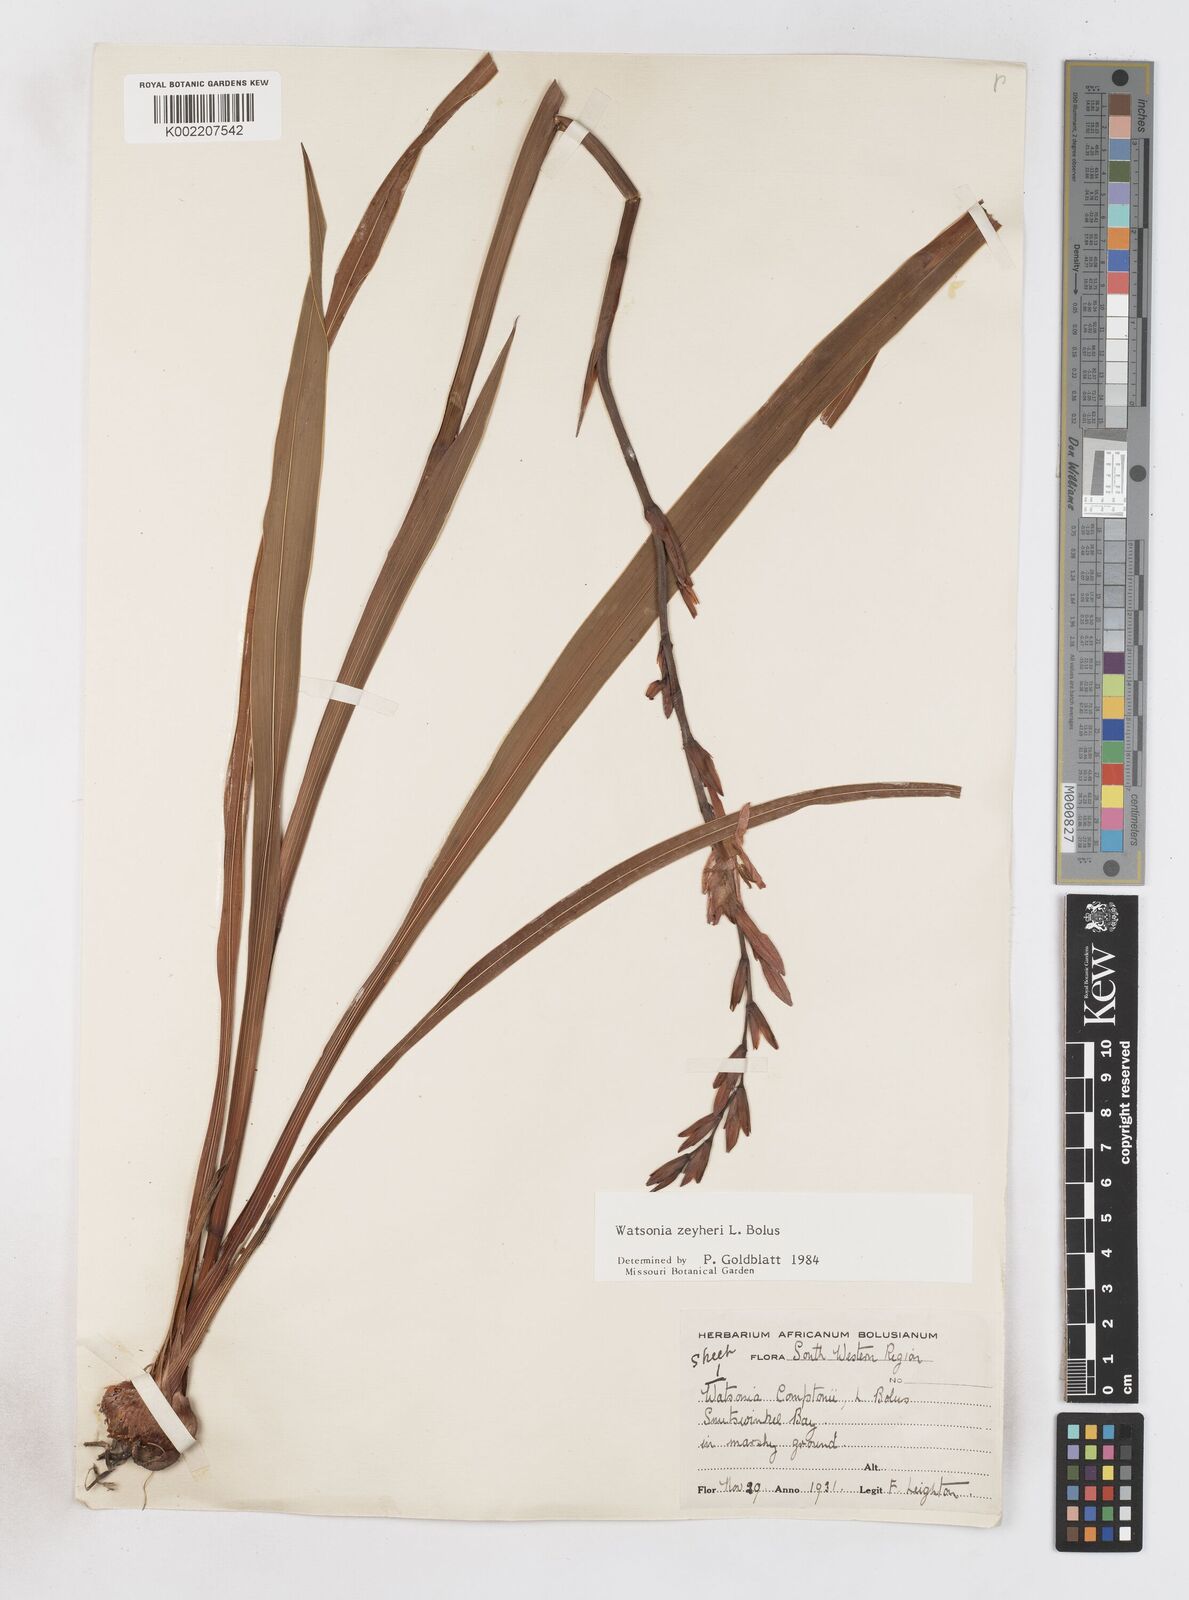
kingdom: Plantae
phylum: Tracheophyta
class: Liliopsida
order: Asparagales
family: Iridaceae
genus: Watsonia
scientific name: Watsonia zeyheri
